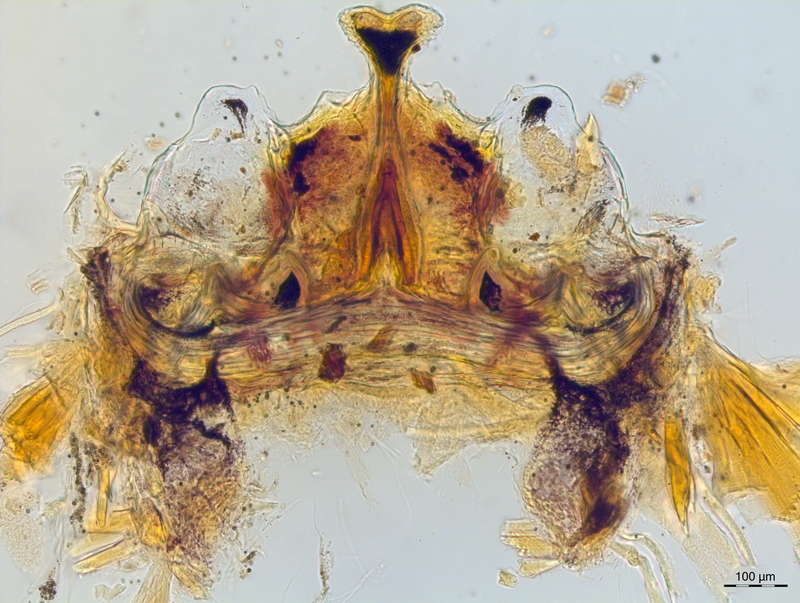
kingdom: Animalia
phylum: Arthropoda
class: Diplopoda
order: Chordeumatida
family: Craspedosomatidae
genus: Craspedosoma
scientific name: Craspedosoma slavum
